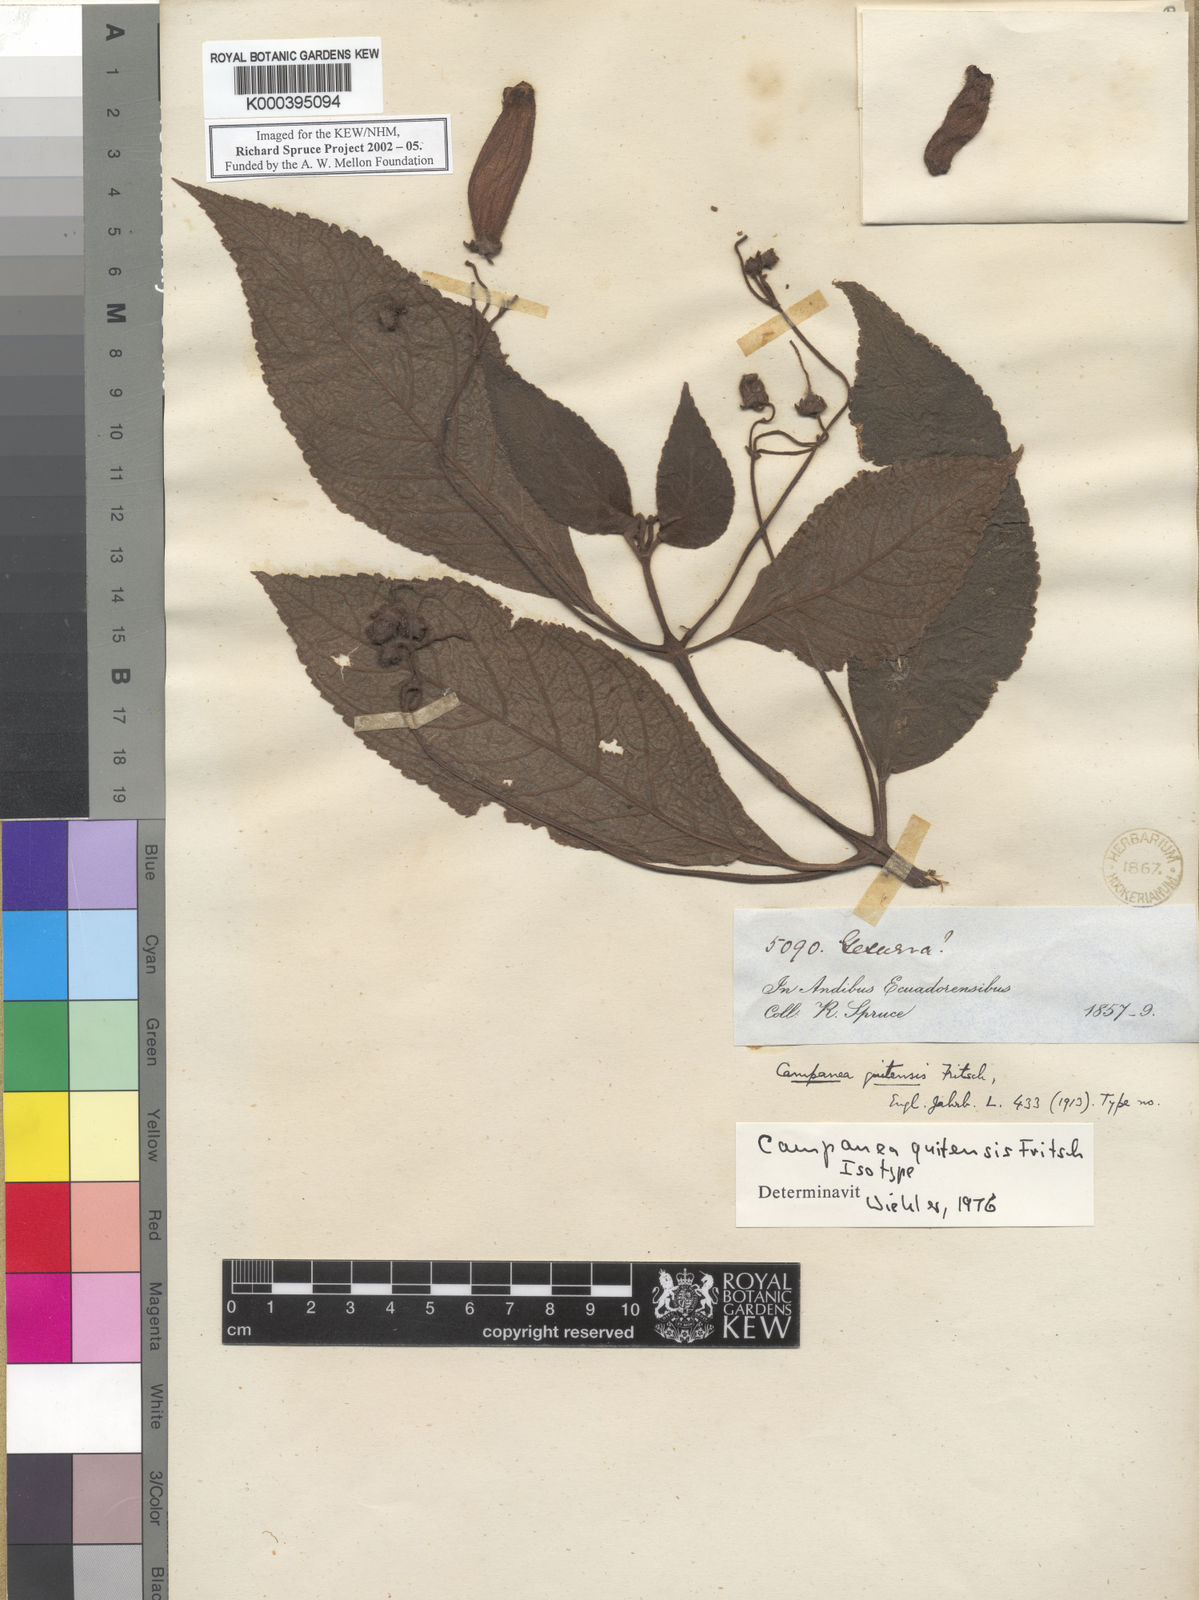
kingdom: Plantae
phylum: Tracheophyta
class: Magnoliopsida
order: Lamiales
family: Gesneriaceae
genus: Kohleria
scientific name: Kohleria
